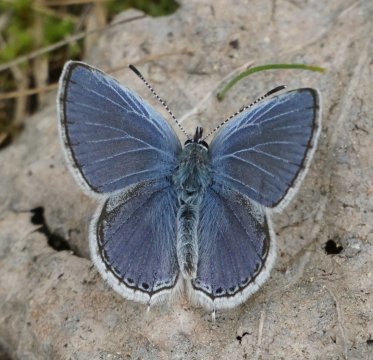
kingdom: Animalia
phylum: Arthropoda
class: Insecta
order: Lepidoptera
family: Lycaenidae
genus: Elkalyce
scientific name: Elkalyce amyntula
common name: Western Tailed-Blue
